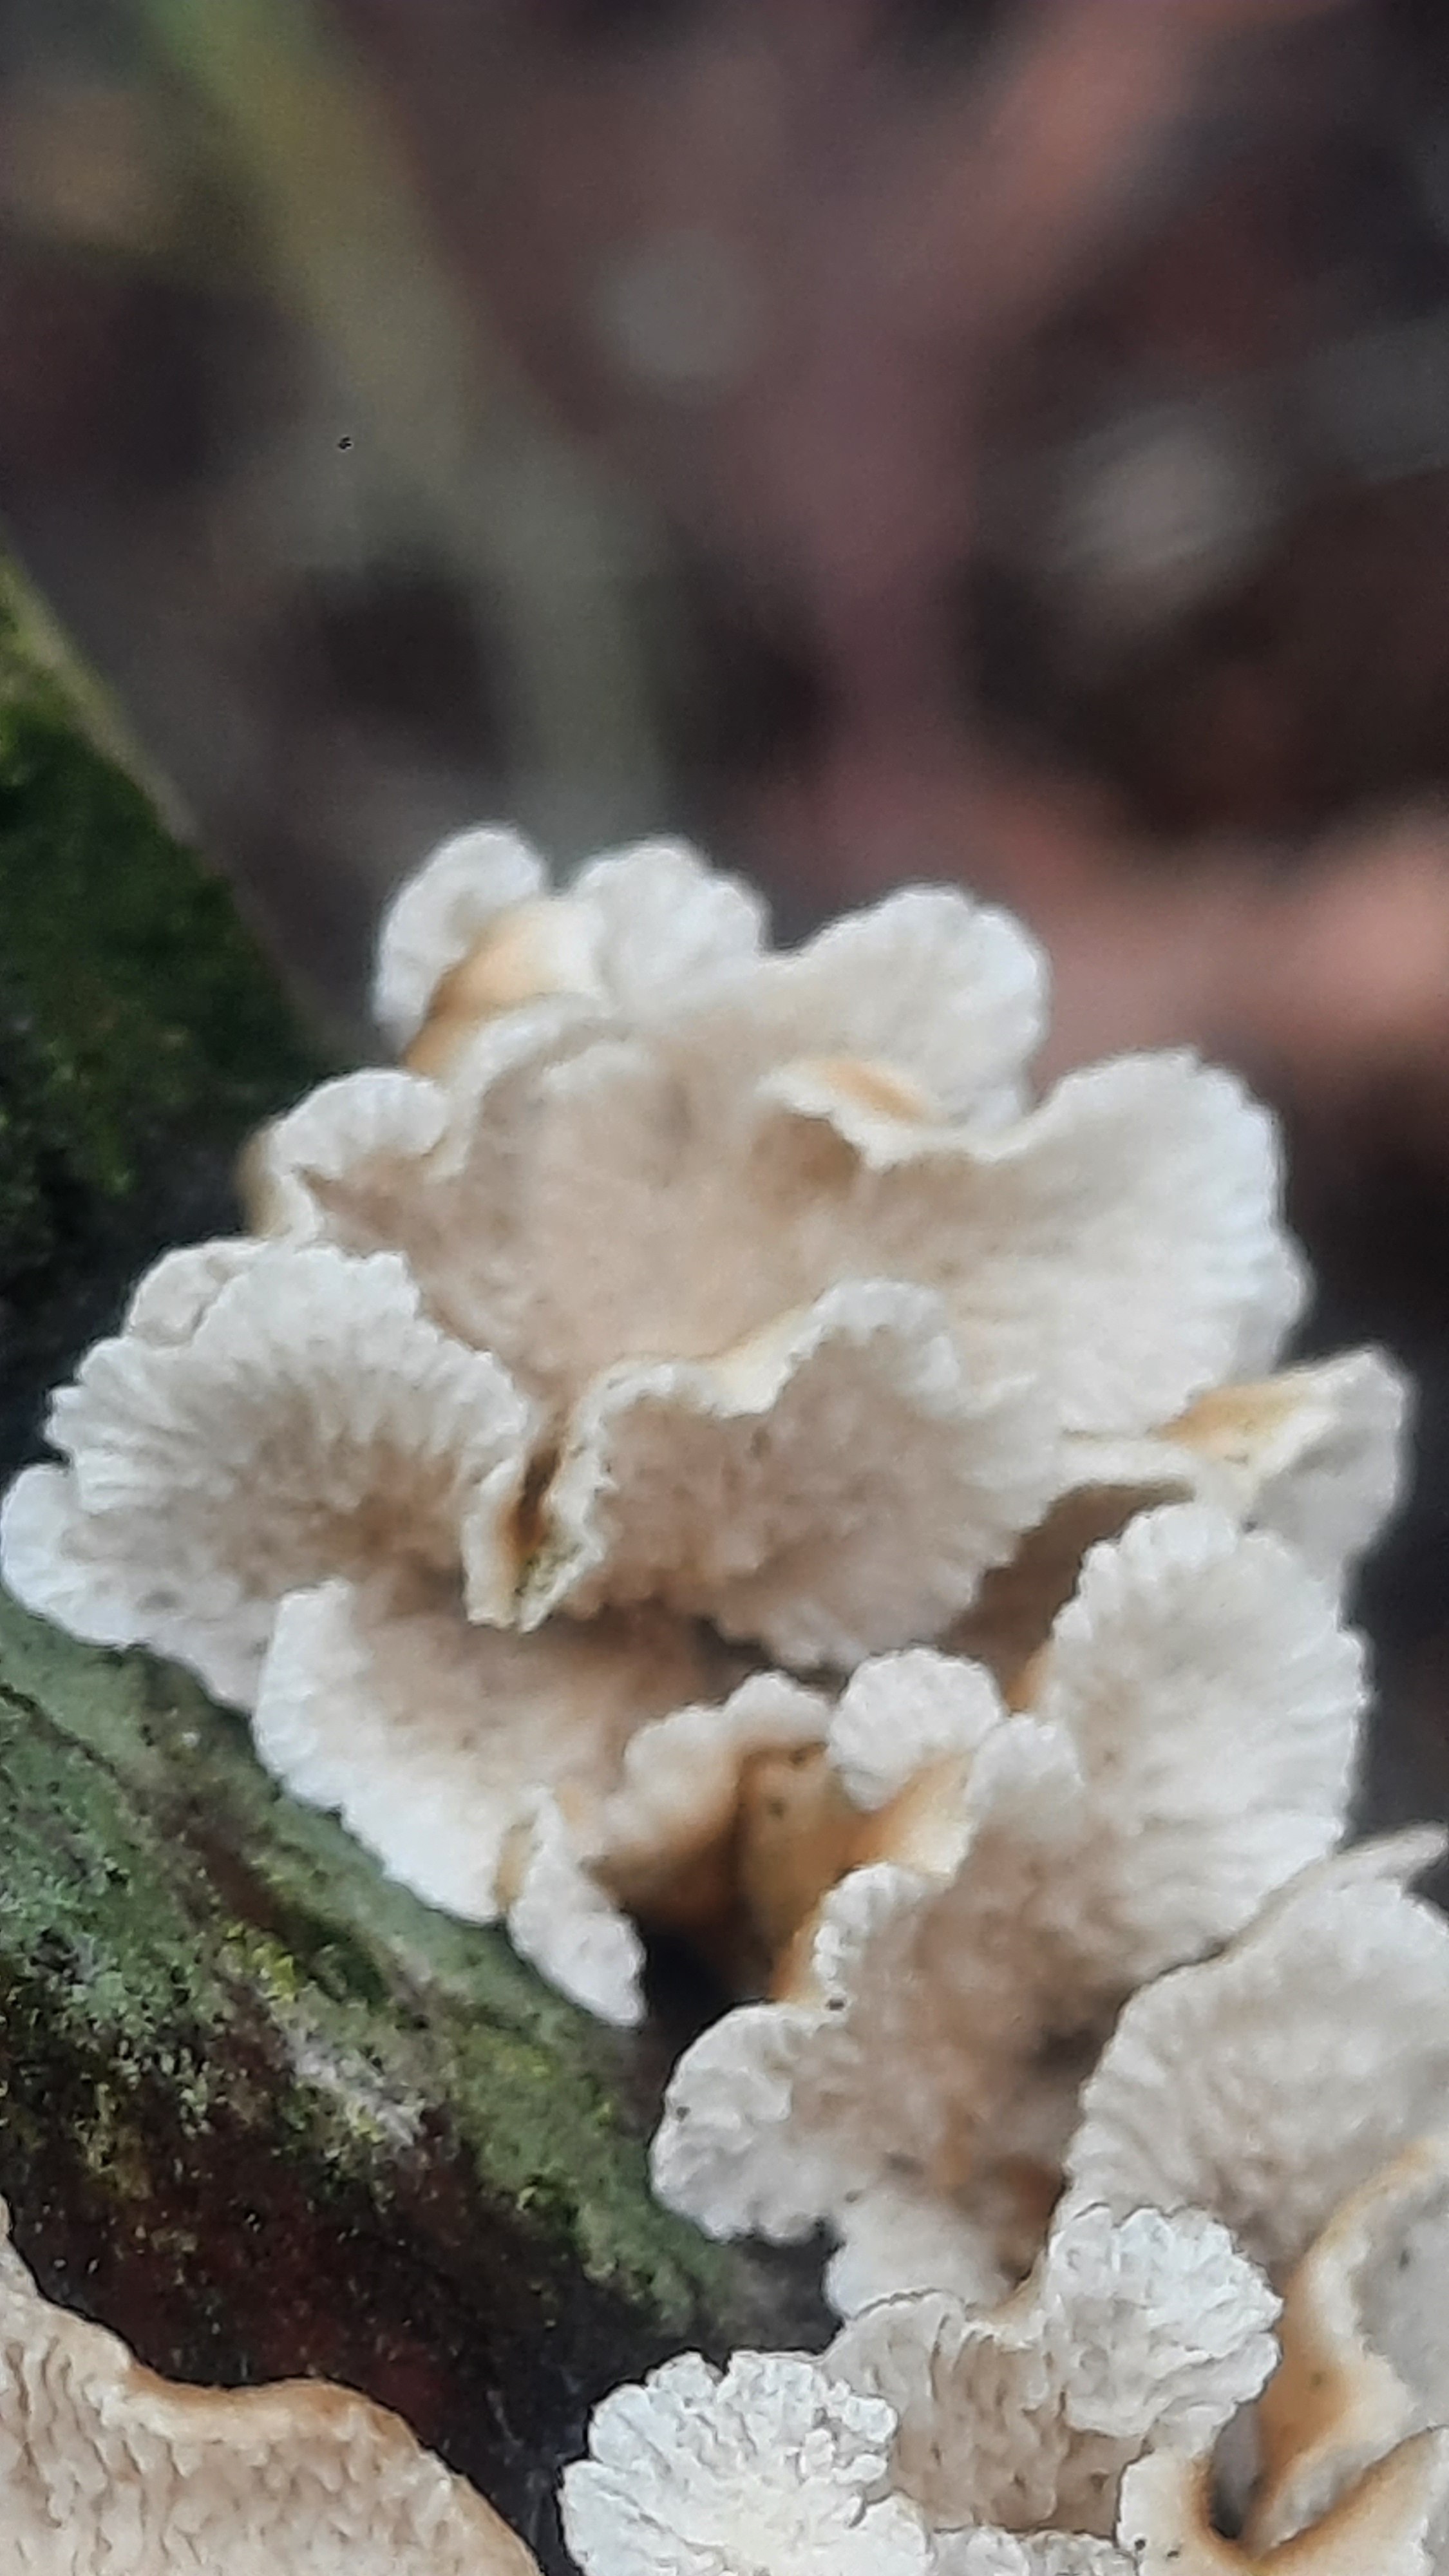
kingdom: Fungi
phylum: Basidiomycota
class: Agaricomycetes
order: Amylocorticiales
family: Amylocorticiaceae
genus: Plicaturopsis
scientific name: Plicaturopsis crispa
